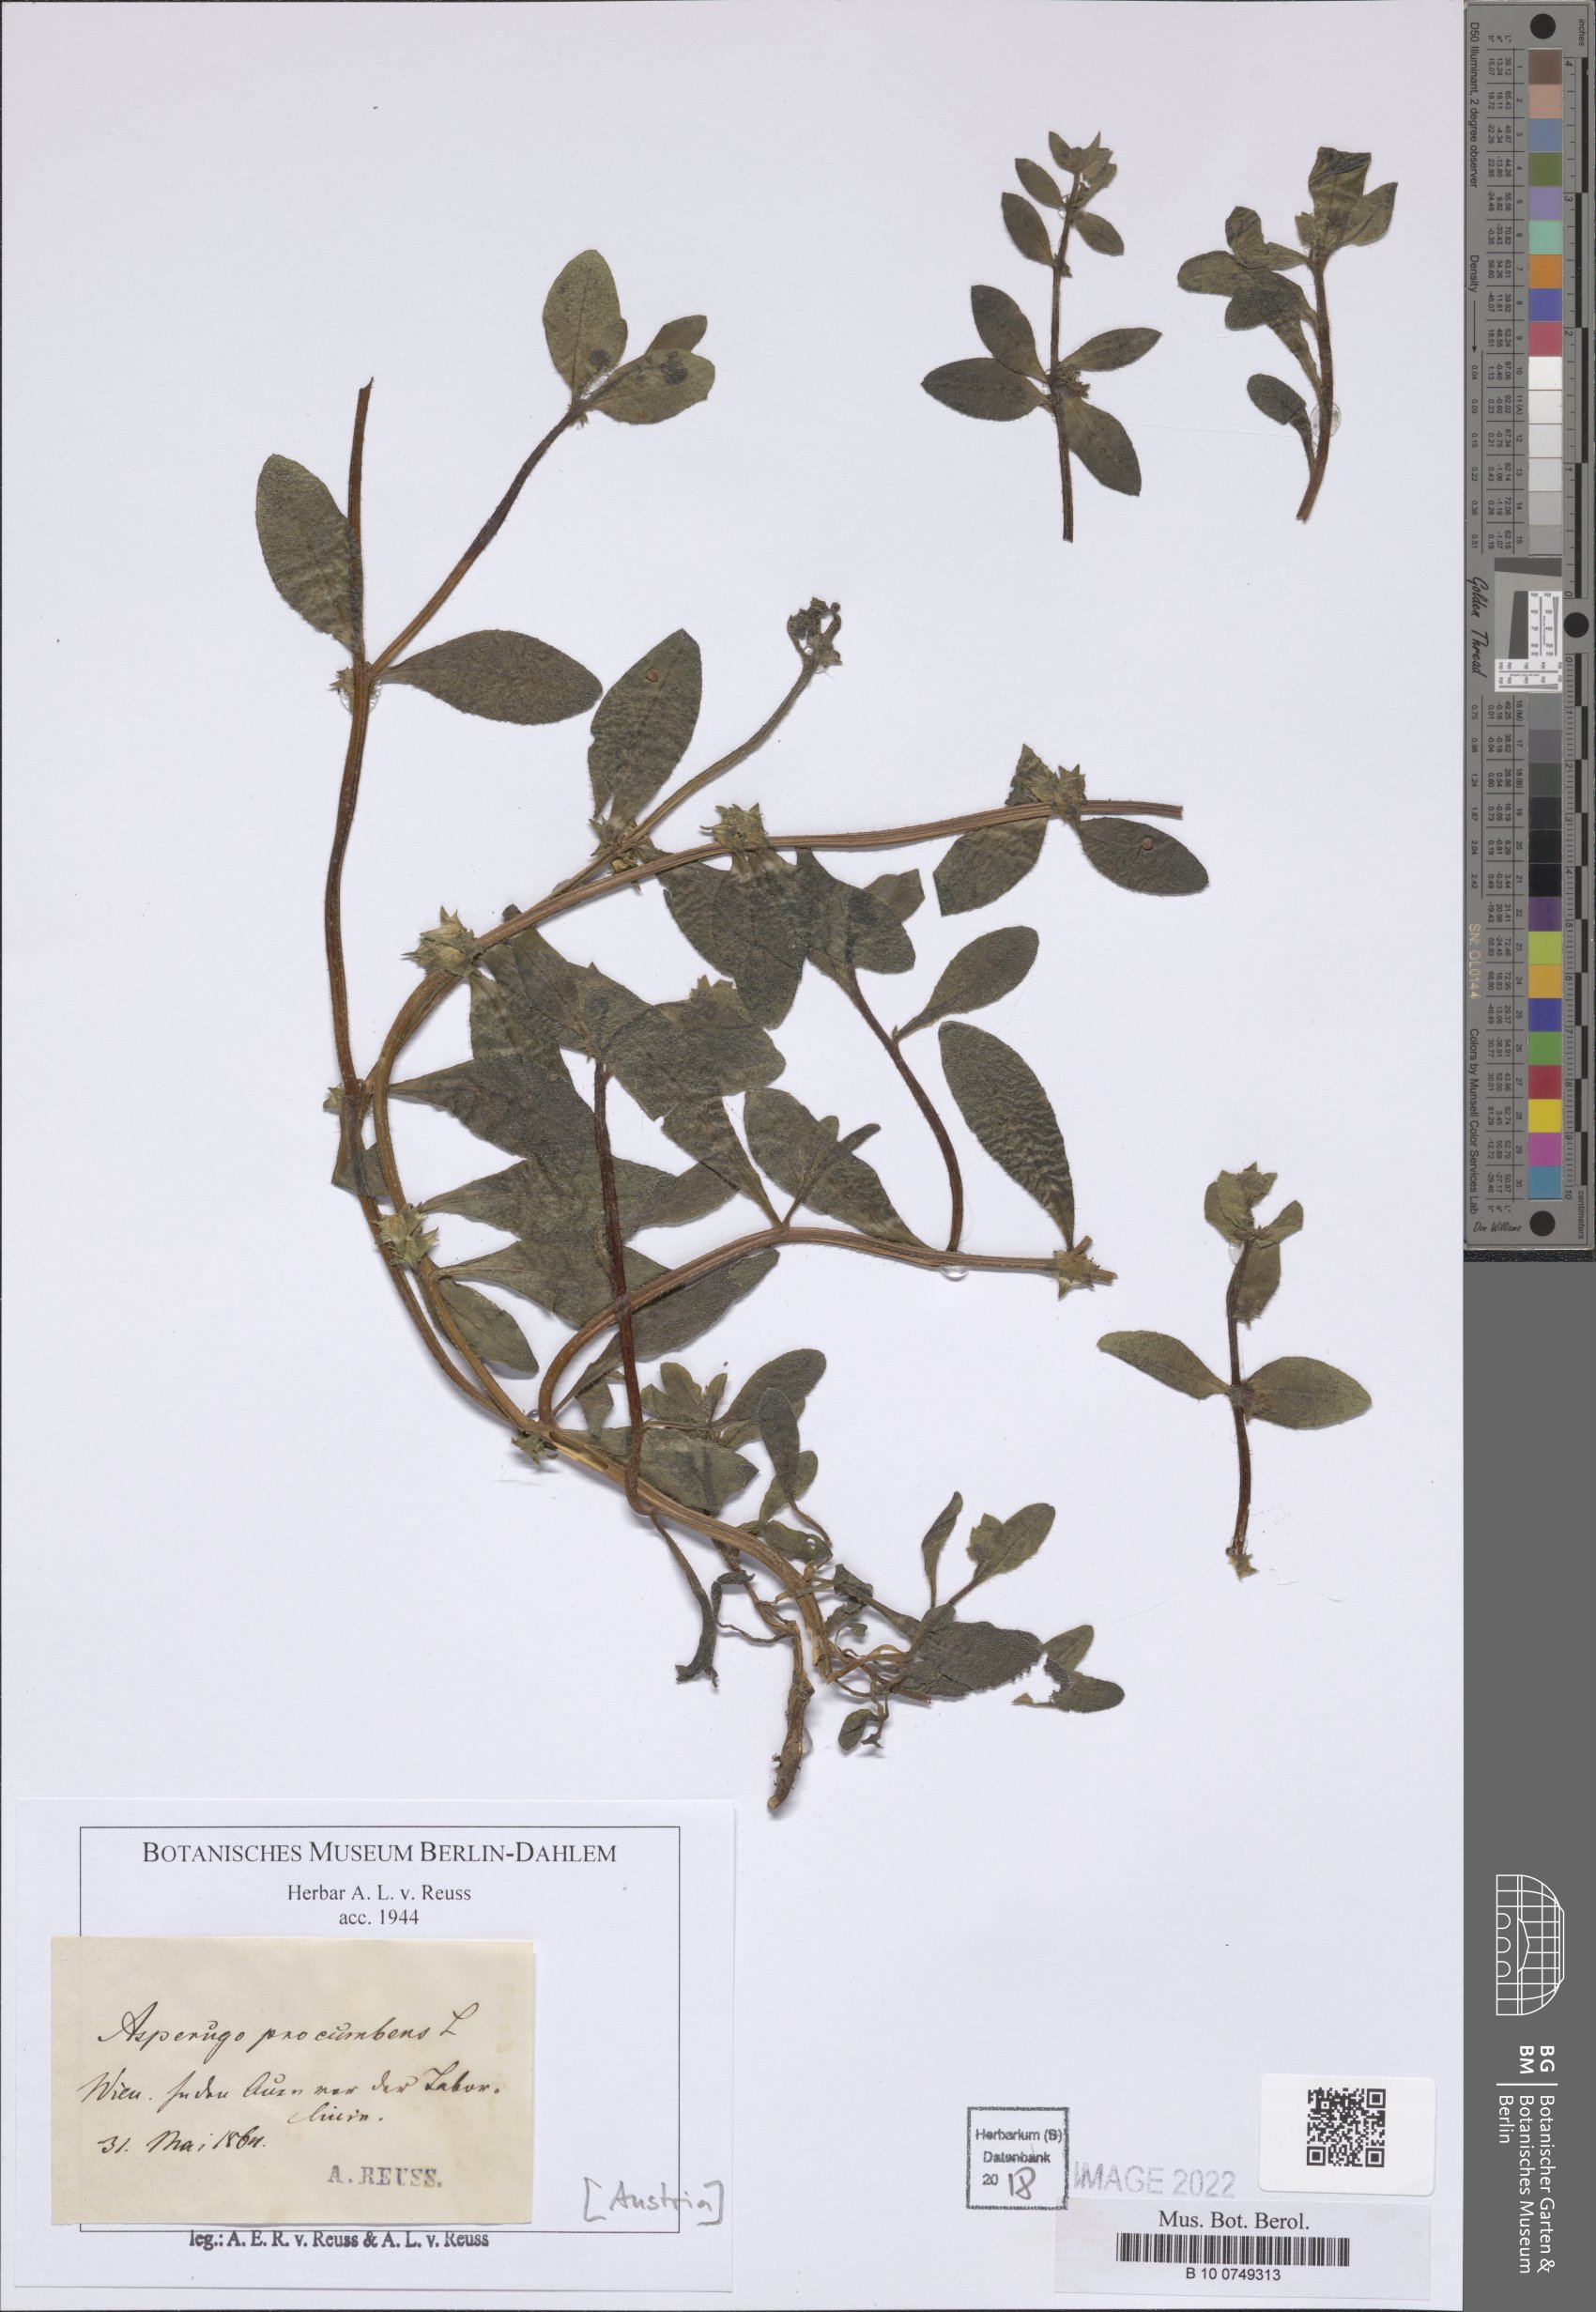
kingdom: Plantae
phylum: Tracheophyta
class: Magnoliopsida
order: Boraginales
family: Boraginaceae
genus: Asperugo
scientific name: Asperugo procumbens
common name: Madwort
